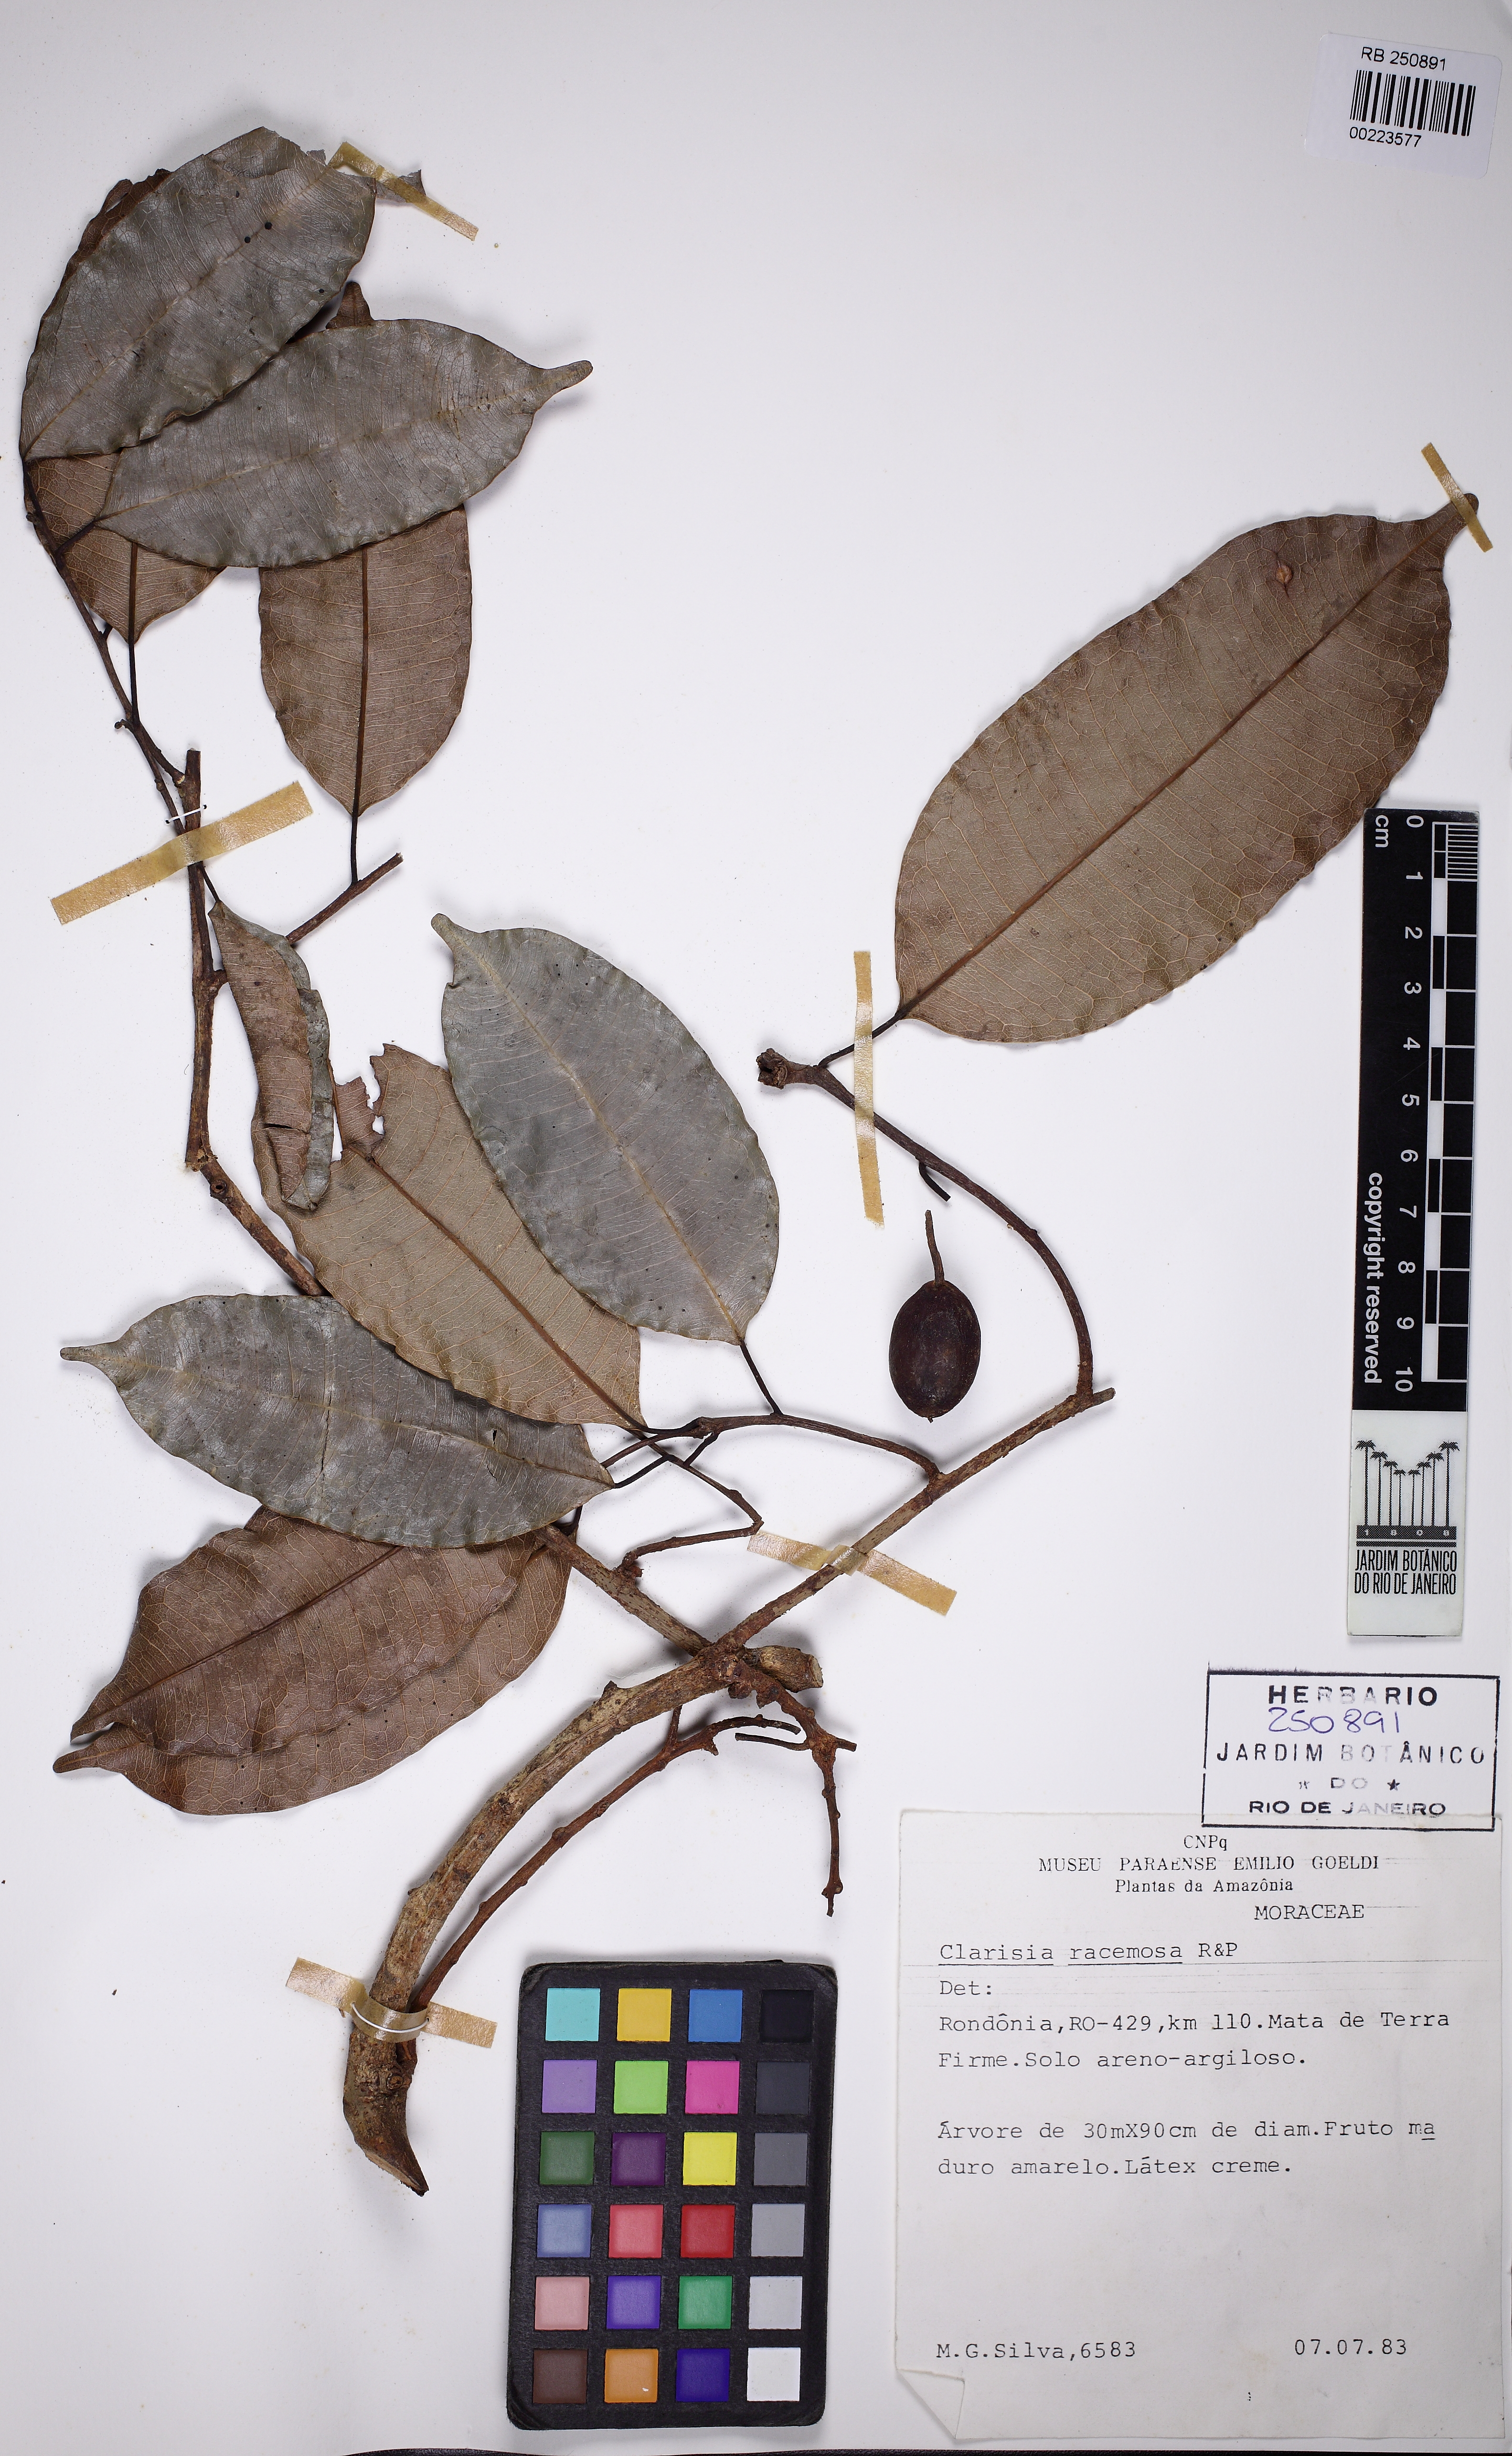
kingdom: Plantae
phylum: Tracheophyta
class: Magnoliopsida
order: Rosales
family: Moraceae
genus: Clarisia
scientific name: Clarisia racemosa
